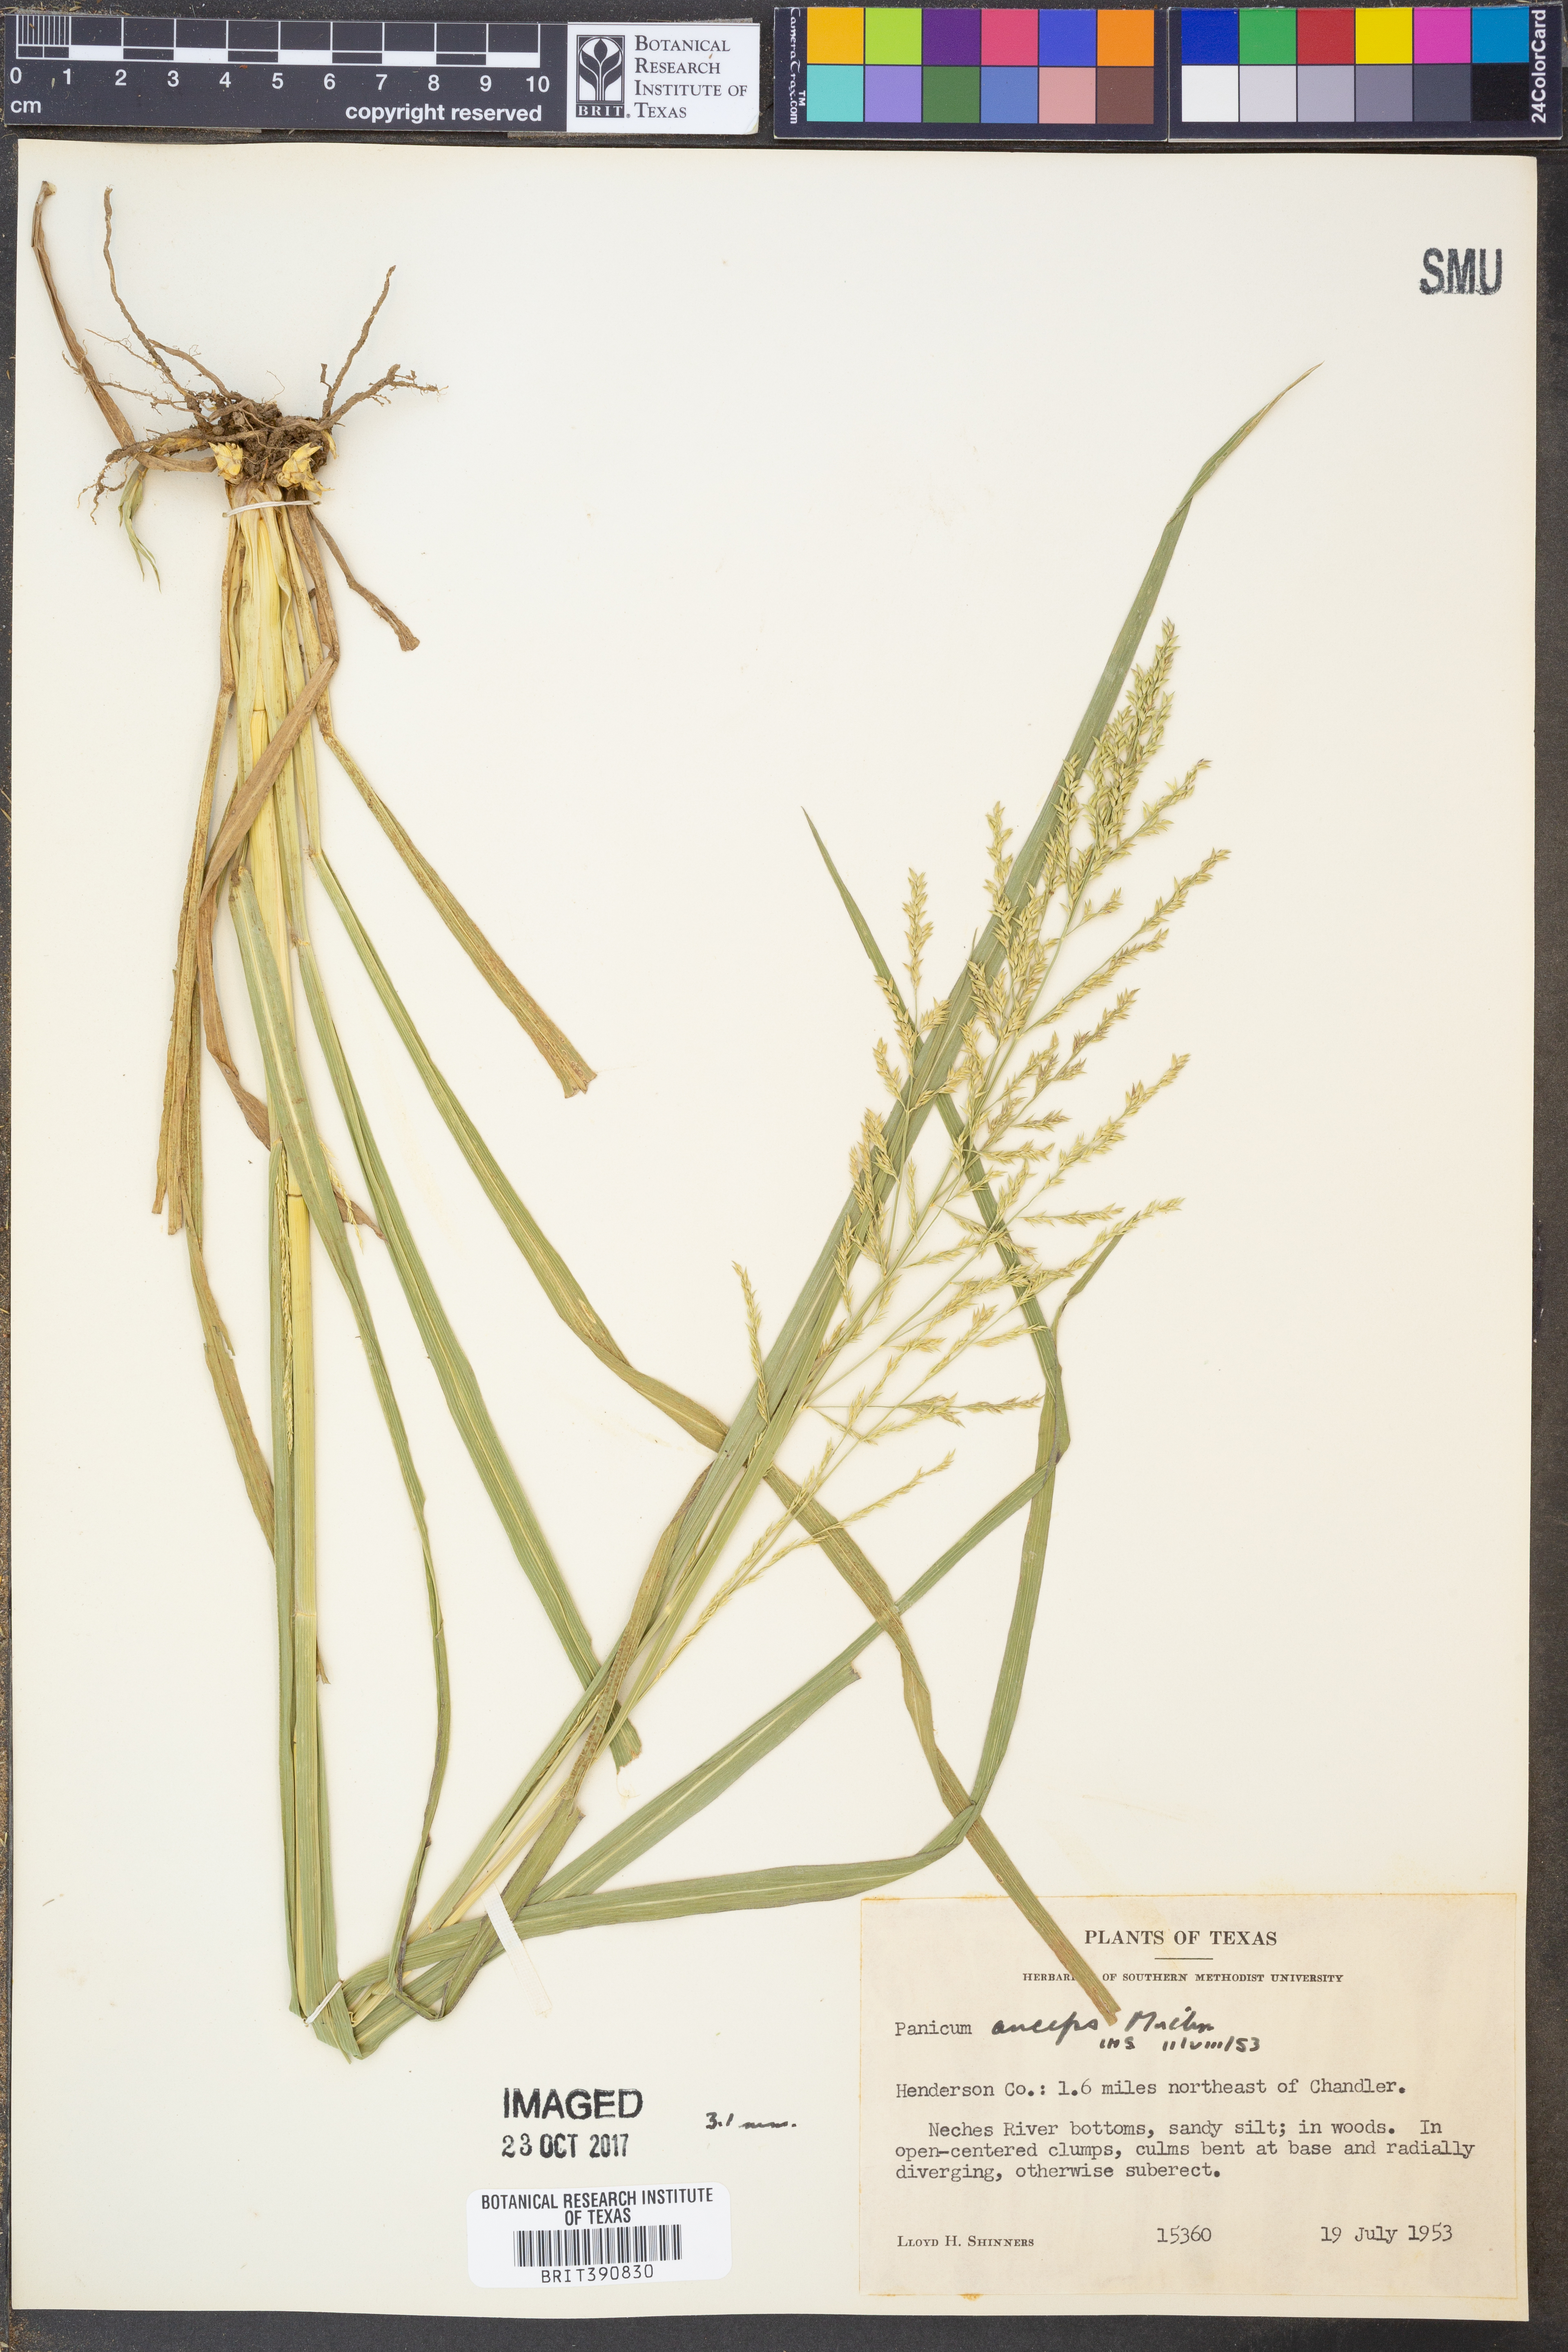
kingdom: Plantae
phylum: Tracheophyta
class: Liliopsida
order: Poales
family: Poaceae
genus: Coleataenia
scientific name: Coleataenia anceps
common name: Beaked panic grass
